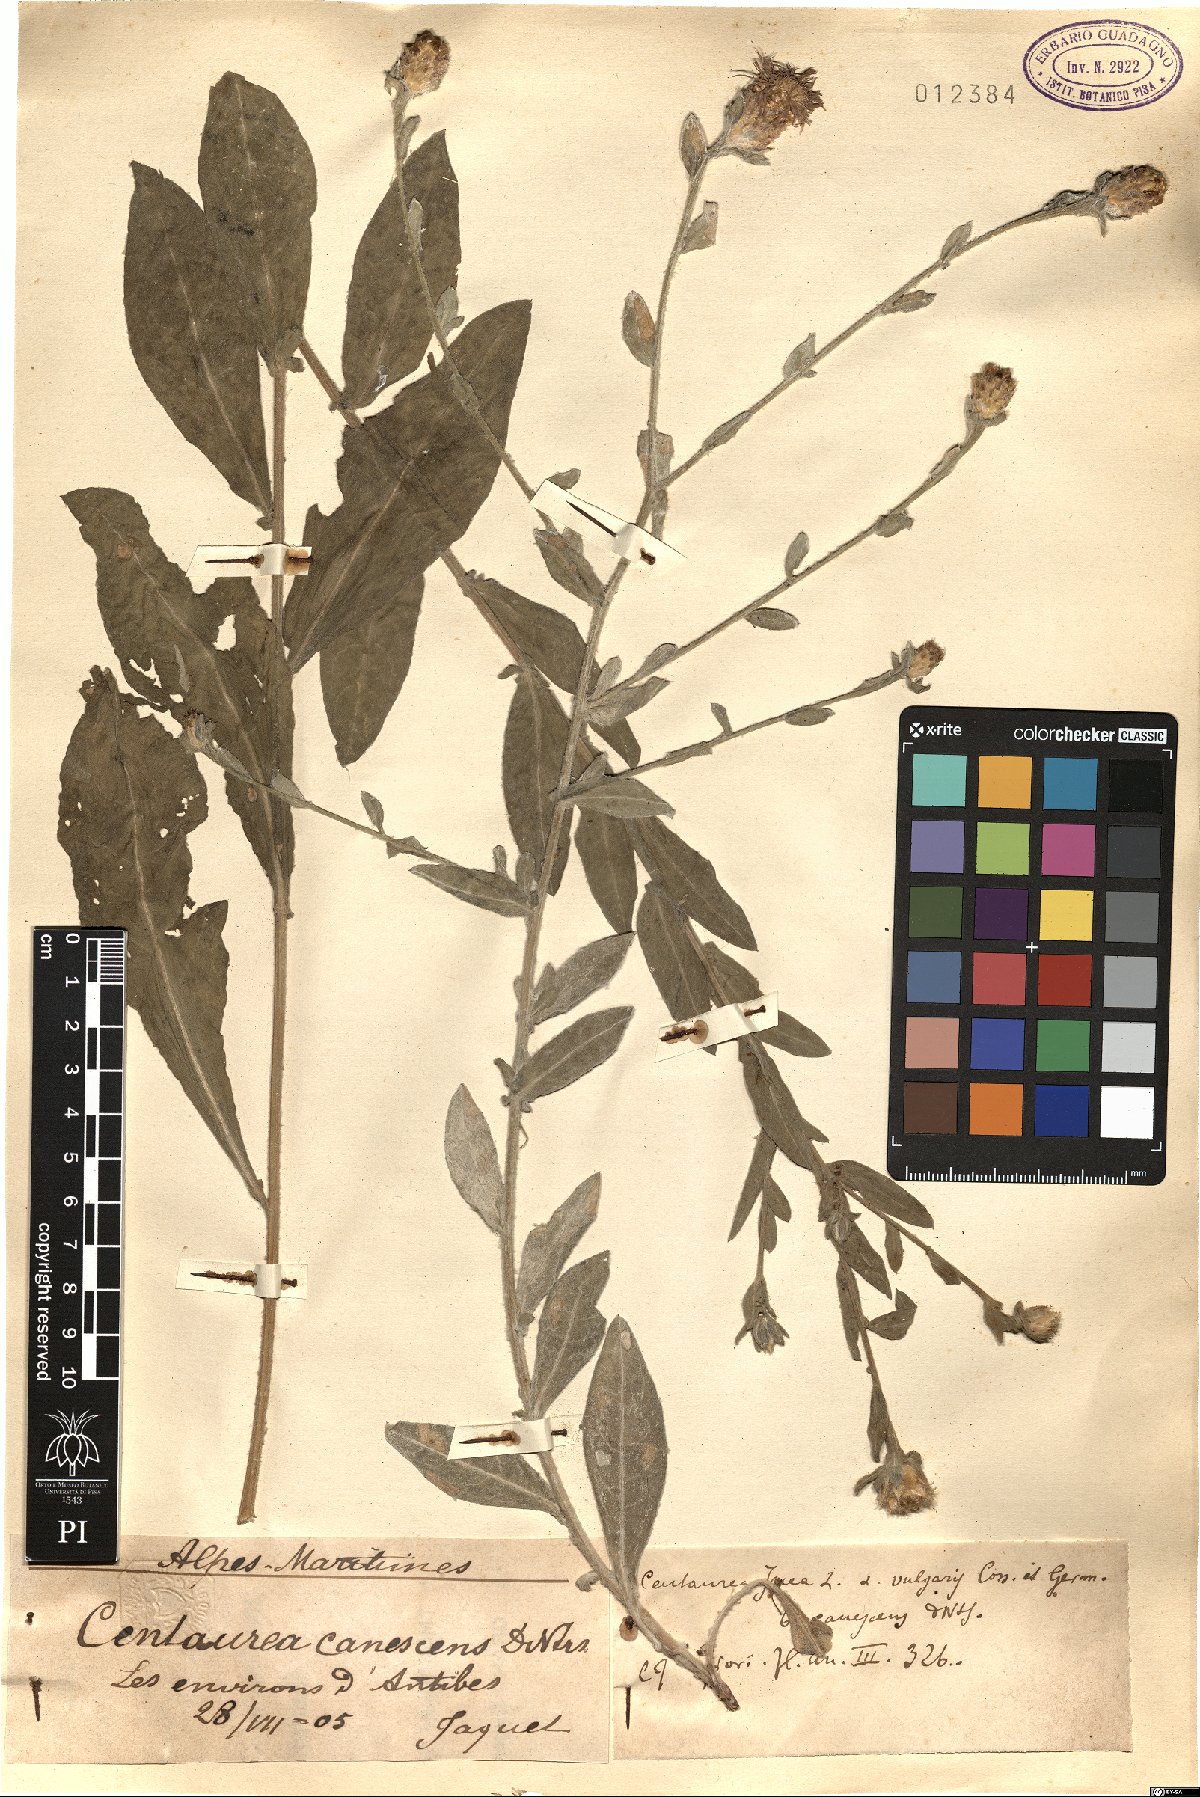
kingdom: Plantae
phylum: Tracheophyta
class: Magnoliopsida
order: Asterales
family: Asteraceae
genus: Centaurea
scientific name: Centaurea
